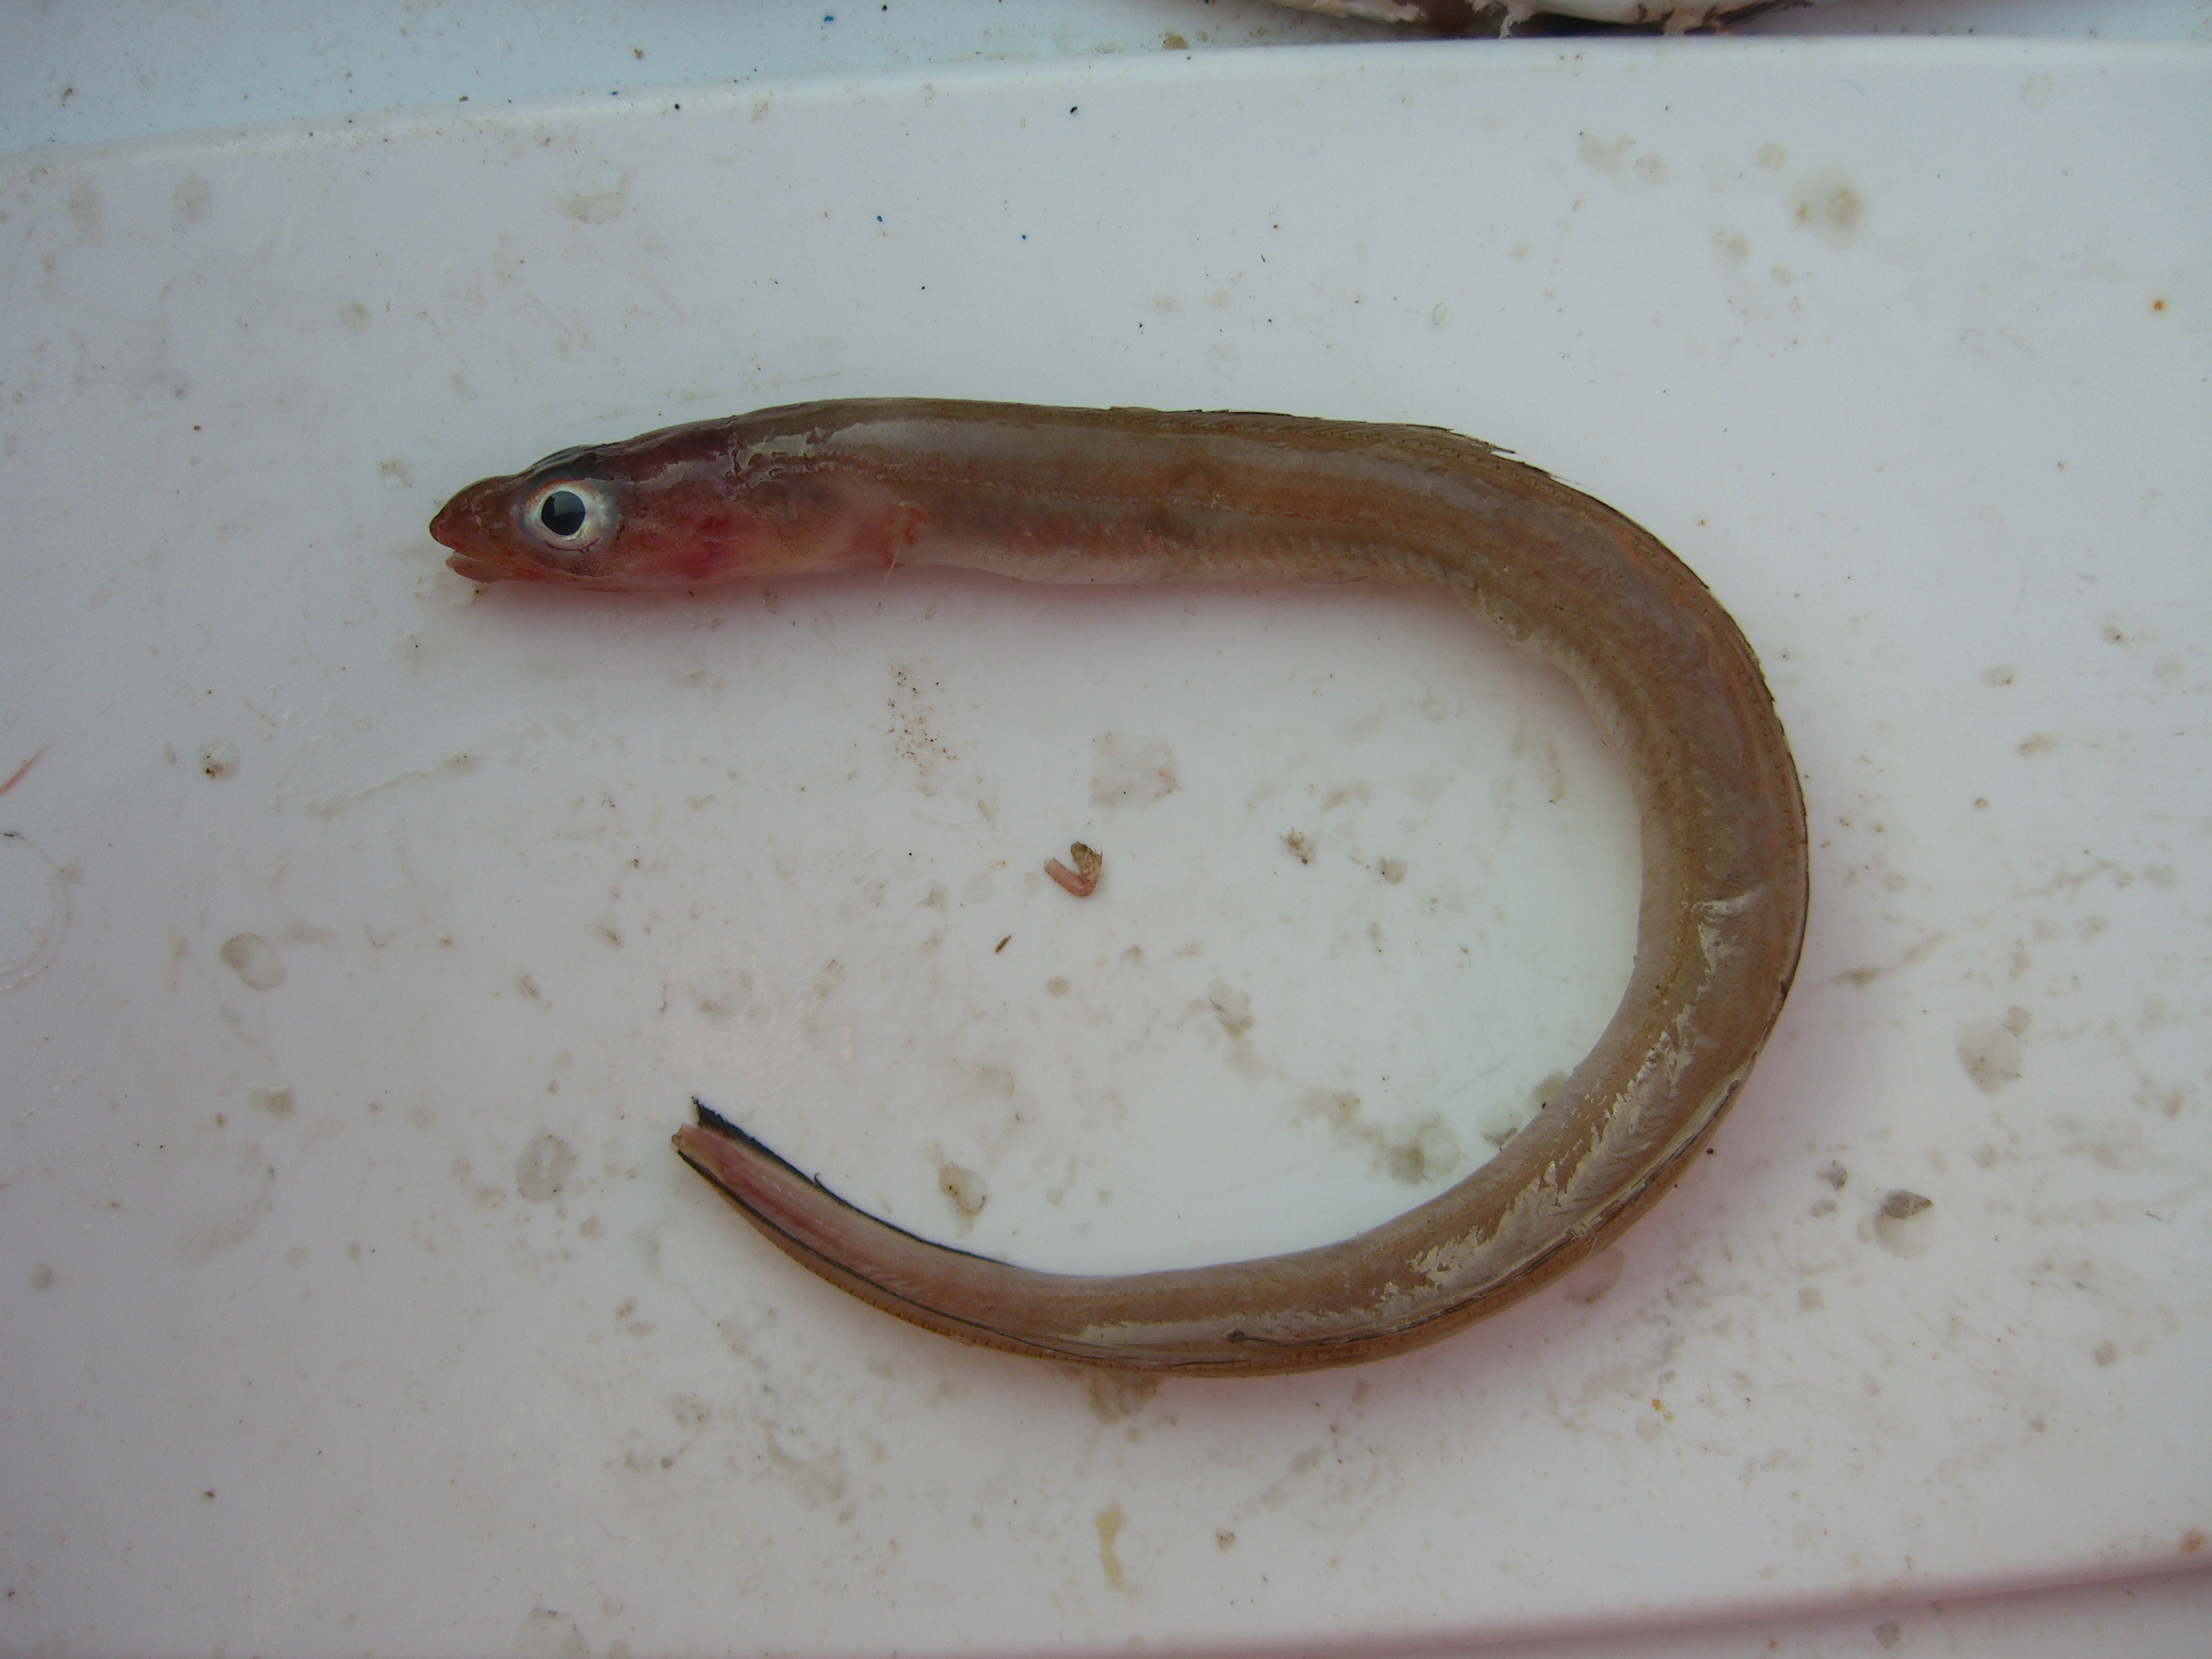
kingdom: Animalia
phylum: Chordata
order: Anguilliformes
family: Congridae
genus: Ariosoma
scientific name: Ariosoma balearicum
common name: Bandtooth conger
